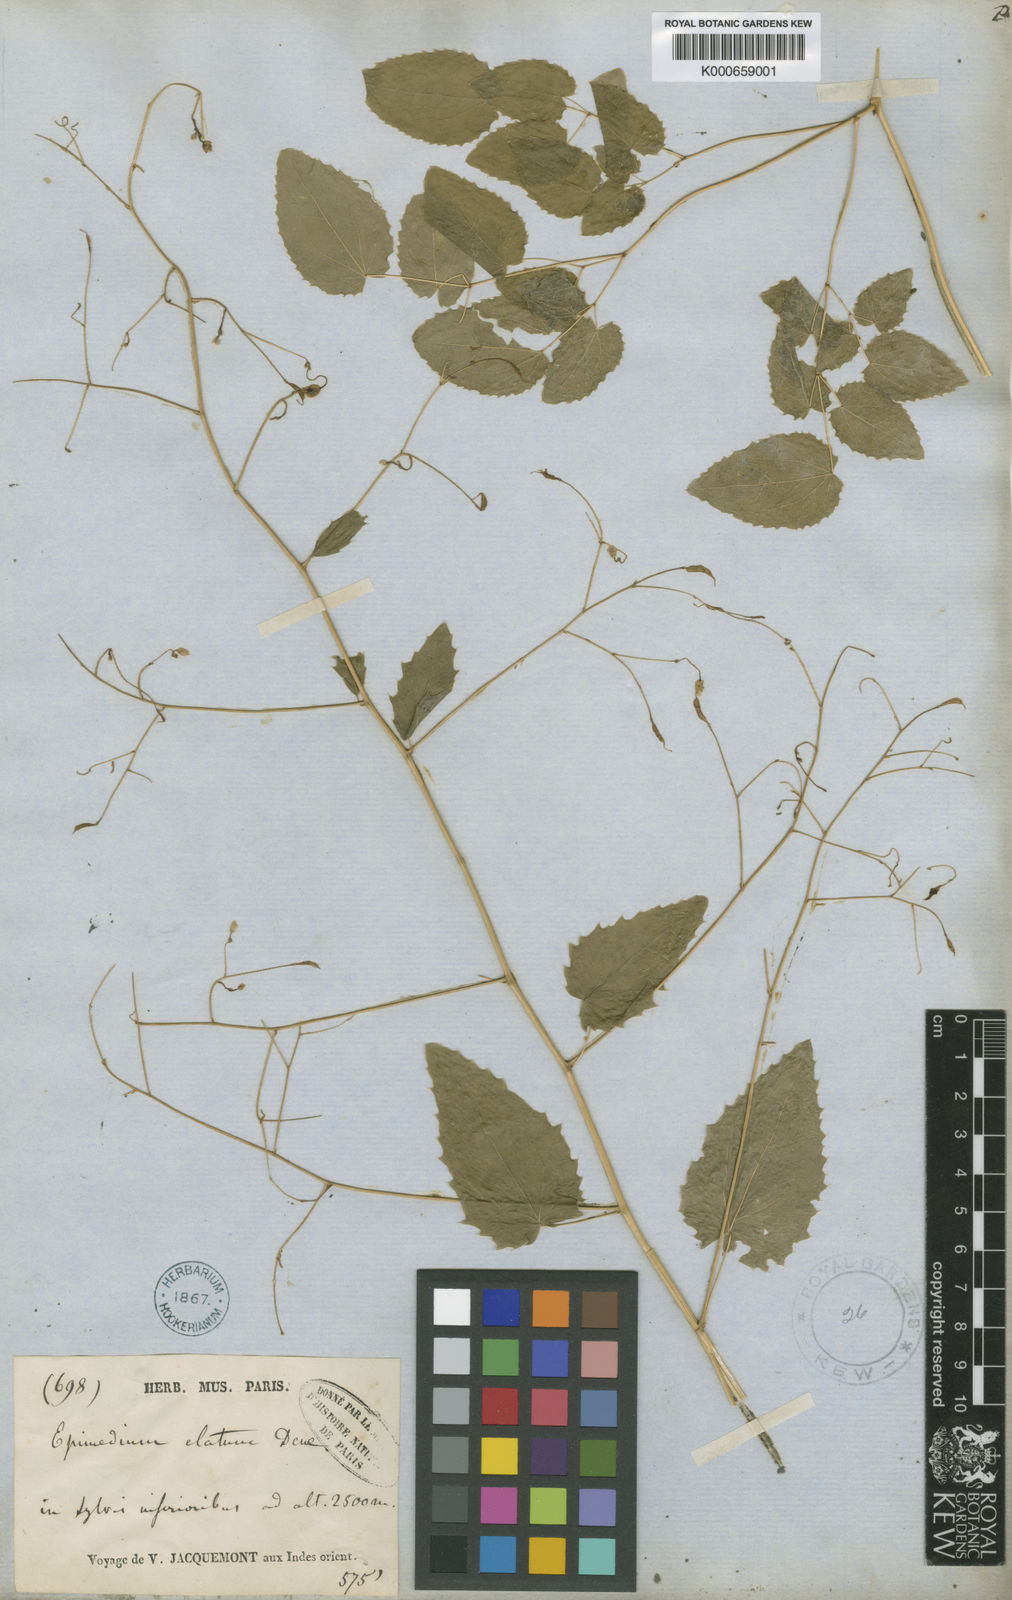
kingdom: Plantae
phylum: Tracheophyta
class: Magnoliopsida
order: Ranunculales
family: Berberidaceae
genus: Epimedium
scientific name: Epimedium elatum
